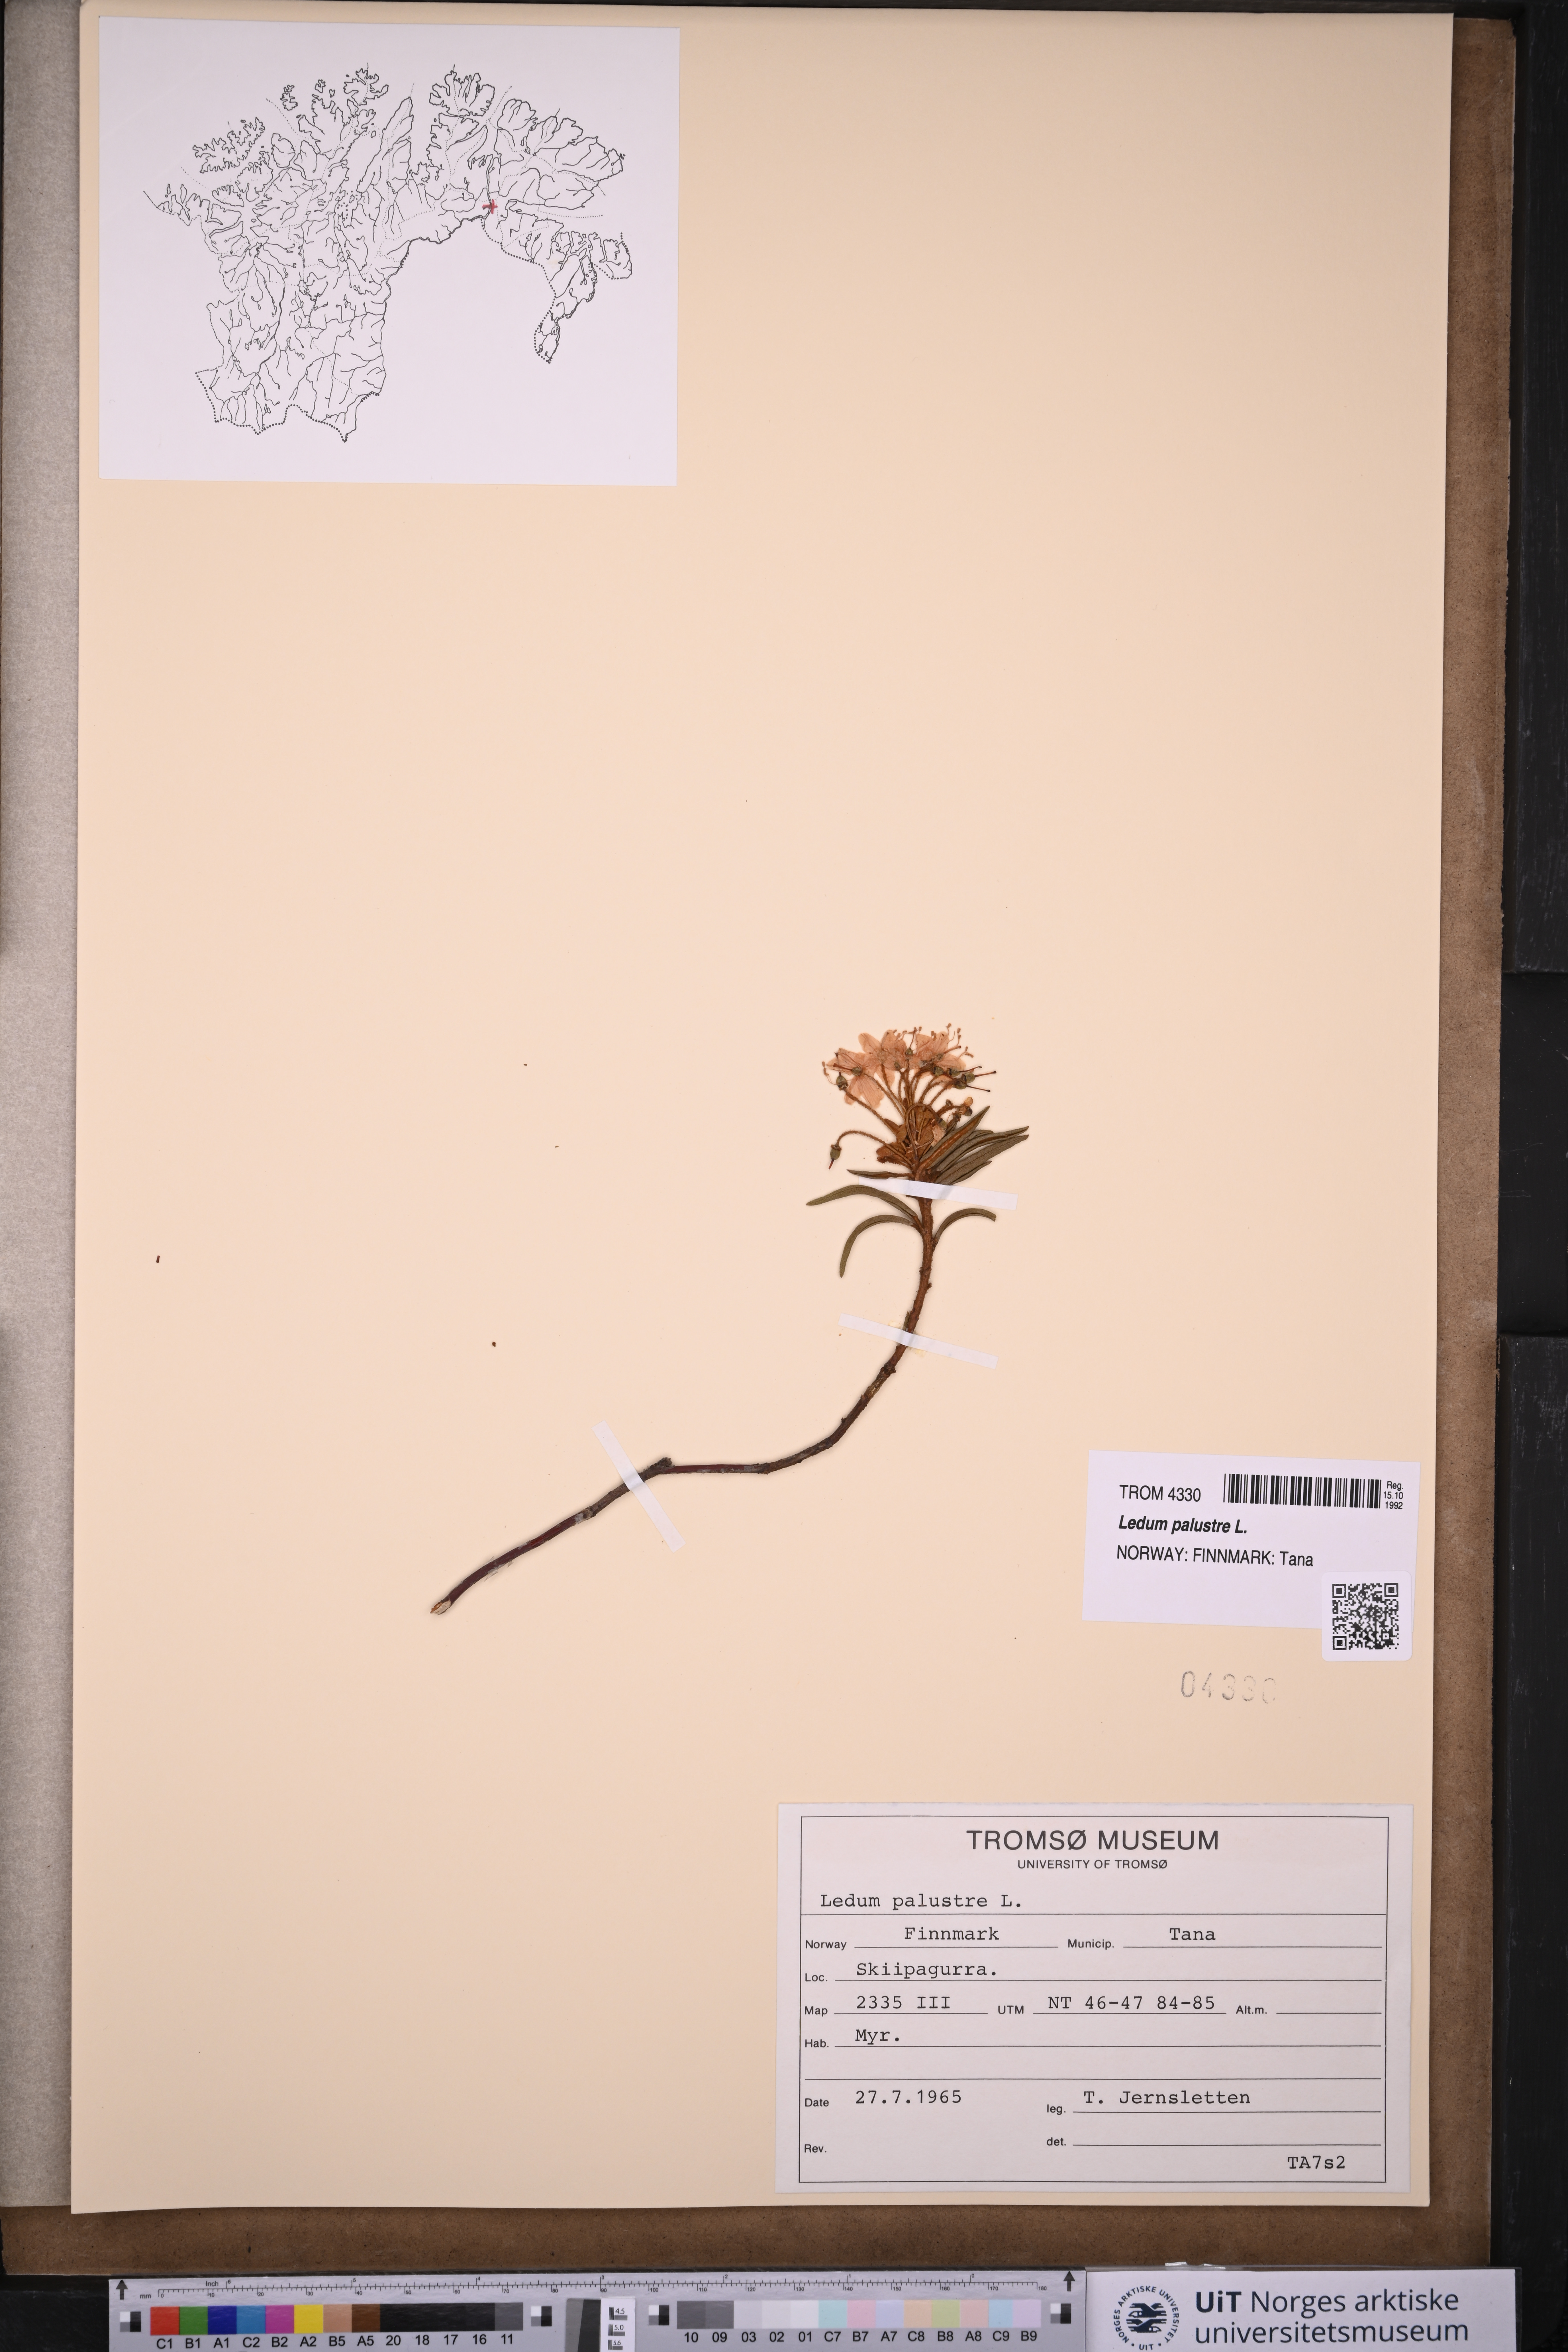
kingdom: Plantae
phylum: Tracheophyta
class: Magnoliopsida
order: Ericales
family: Ericaceae
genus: Rhododendron
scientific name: Rhododendron tomentosum
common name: Marsh labrador tea
